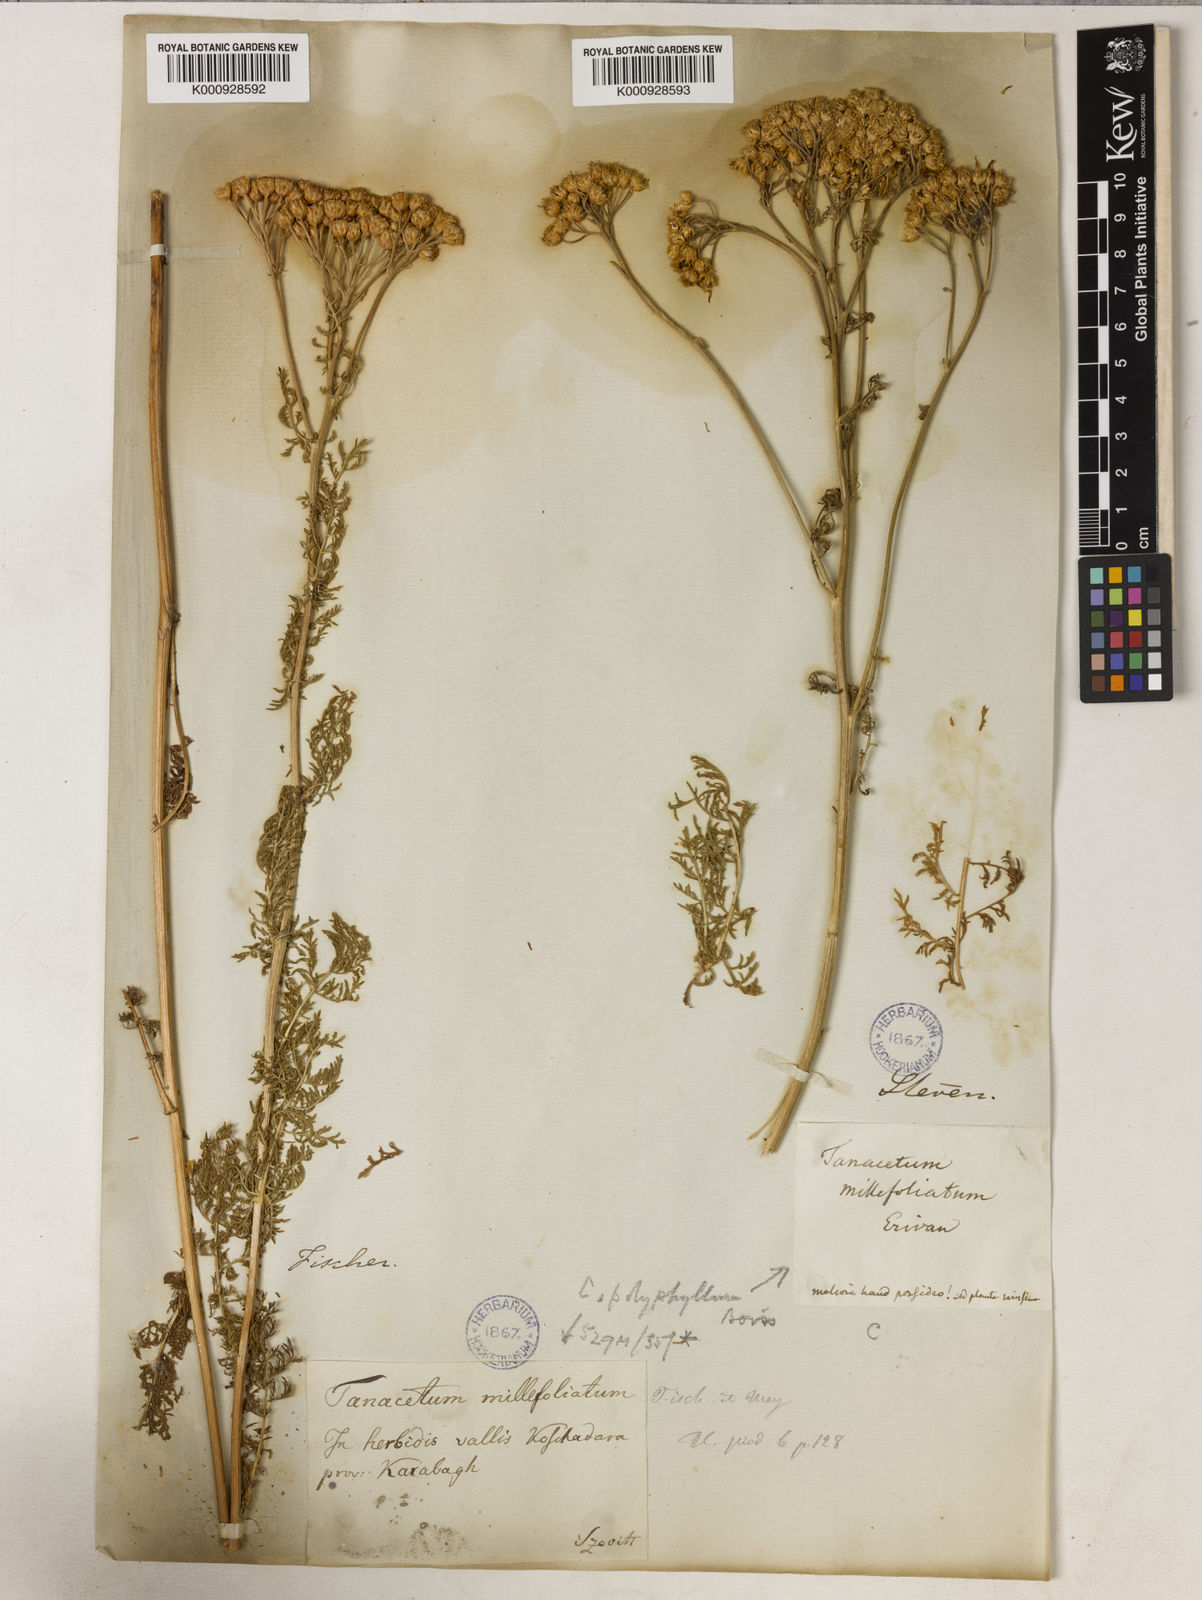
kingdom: Plantae
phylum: Tracheophyta
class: Magnoliopsida
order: Asterales
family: Asteraceae
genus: Tanacetum
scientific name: Tanacetum abrotanifolium
